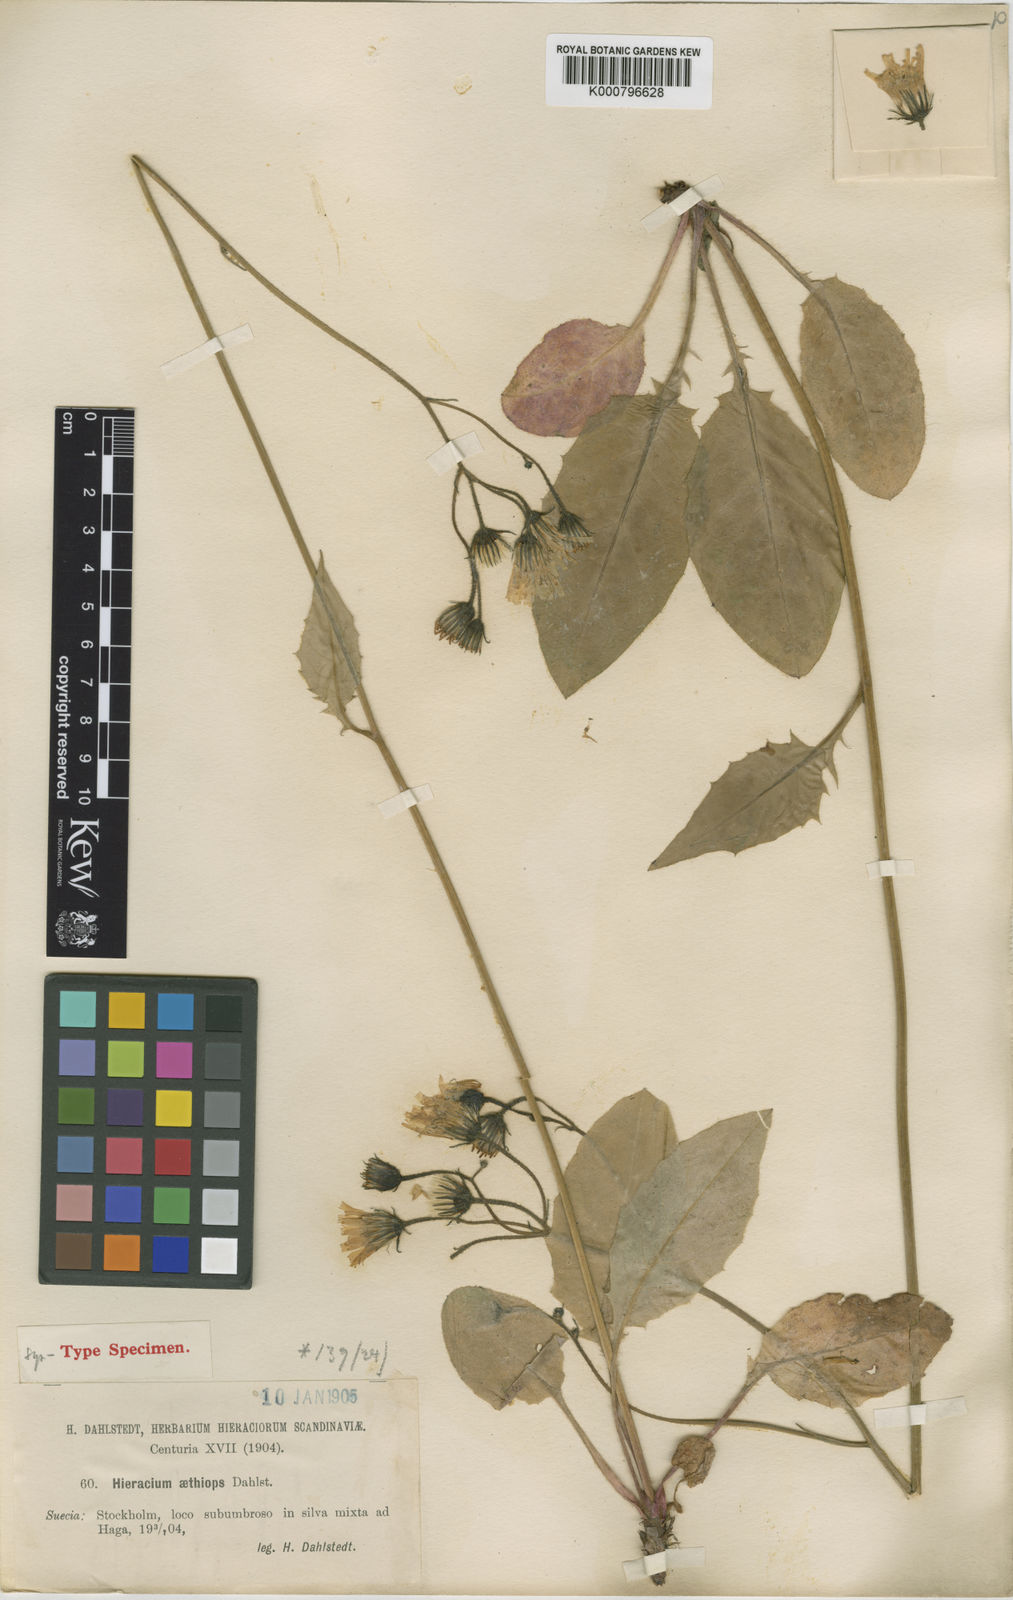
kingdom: Plantae
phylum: Tracheophyta
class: Magnoliopsida
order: Asterales
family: Asteraceae
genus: Hieracium
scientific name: Hieracium murorum
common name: Wall hawkweed
